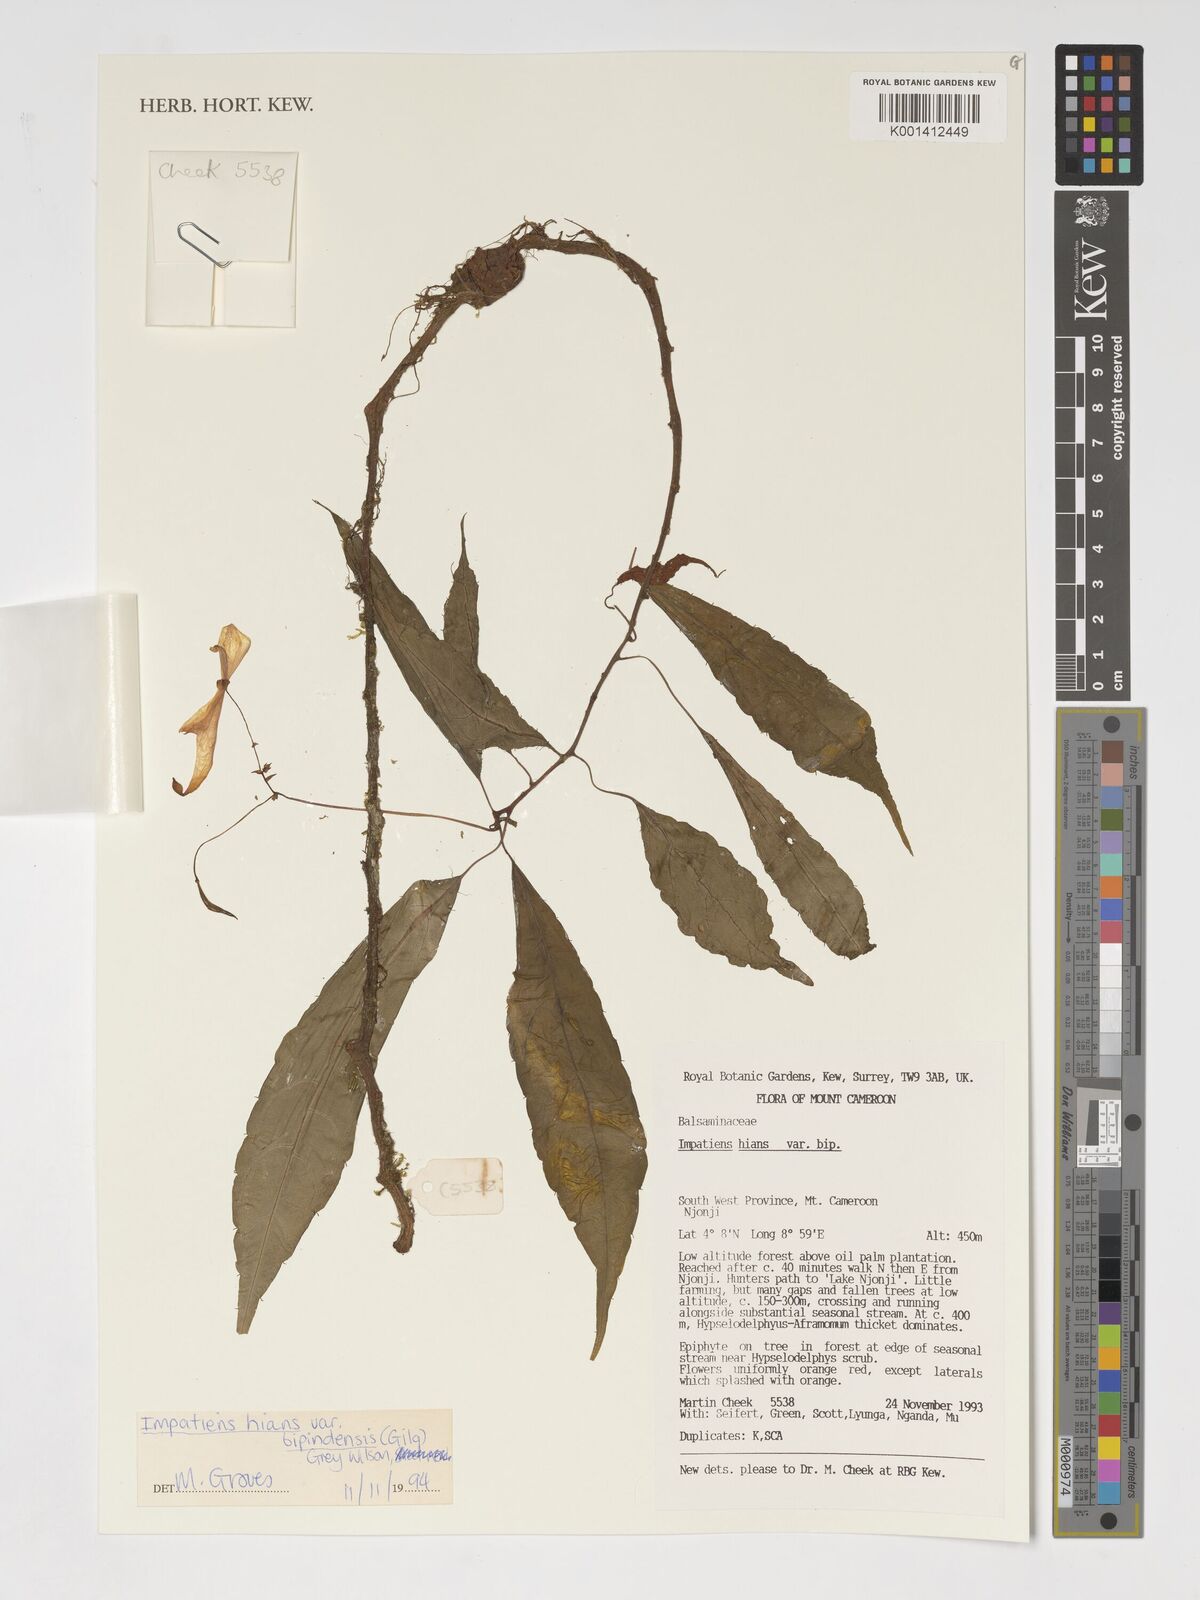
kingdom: Plantae
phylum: Tracheophyta
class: Magnoliopsida
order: Ericales
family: Balsaminaceae
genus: Impatiens
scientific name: Impatiens hians
